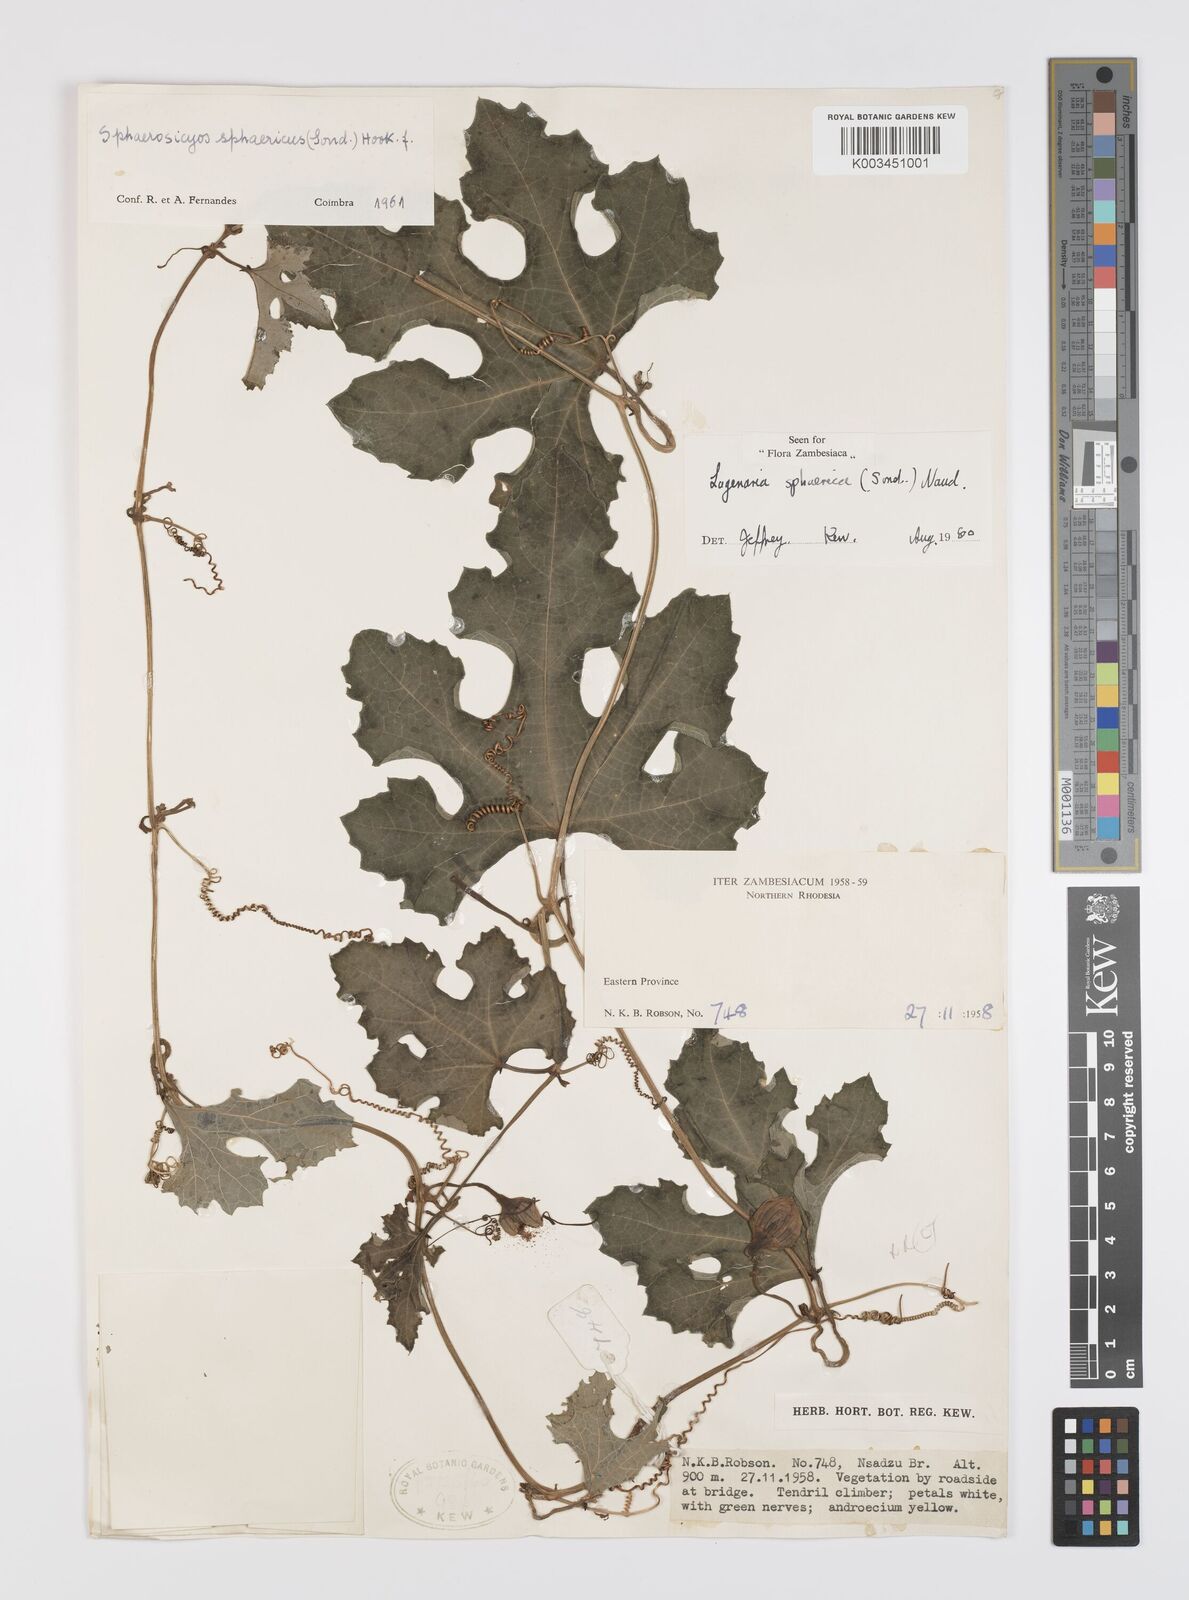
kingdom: Plantae
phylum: Tracheophyta
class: Magnoliopsida
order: Cucurbitales
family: Cucurbitaceae
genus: Lagenaria
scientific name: Lagenaria sphaerica
